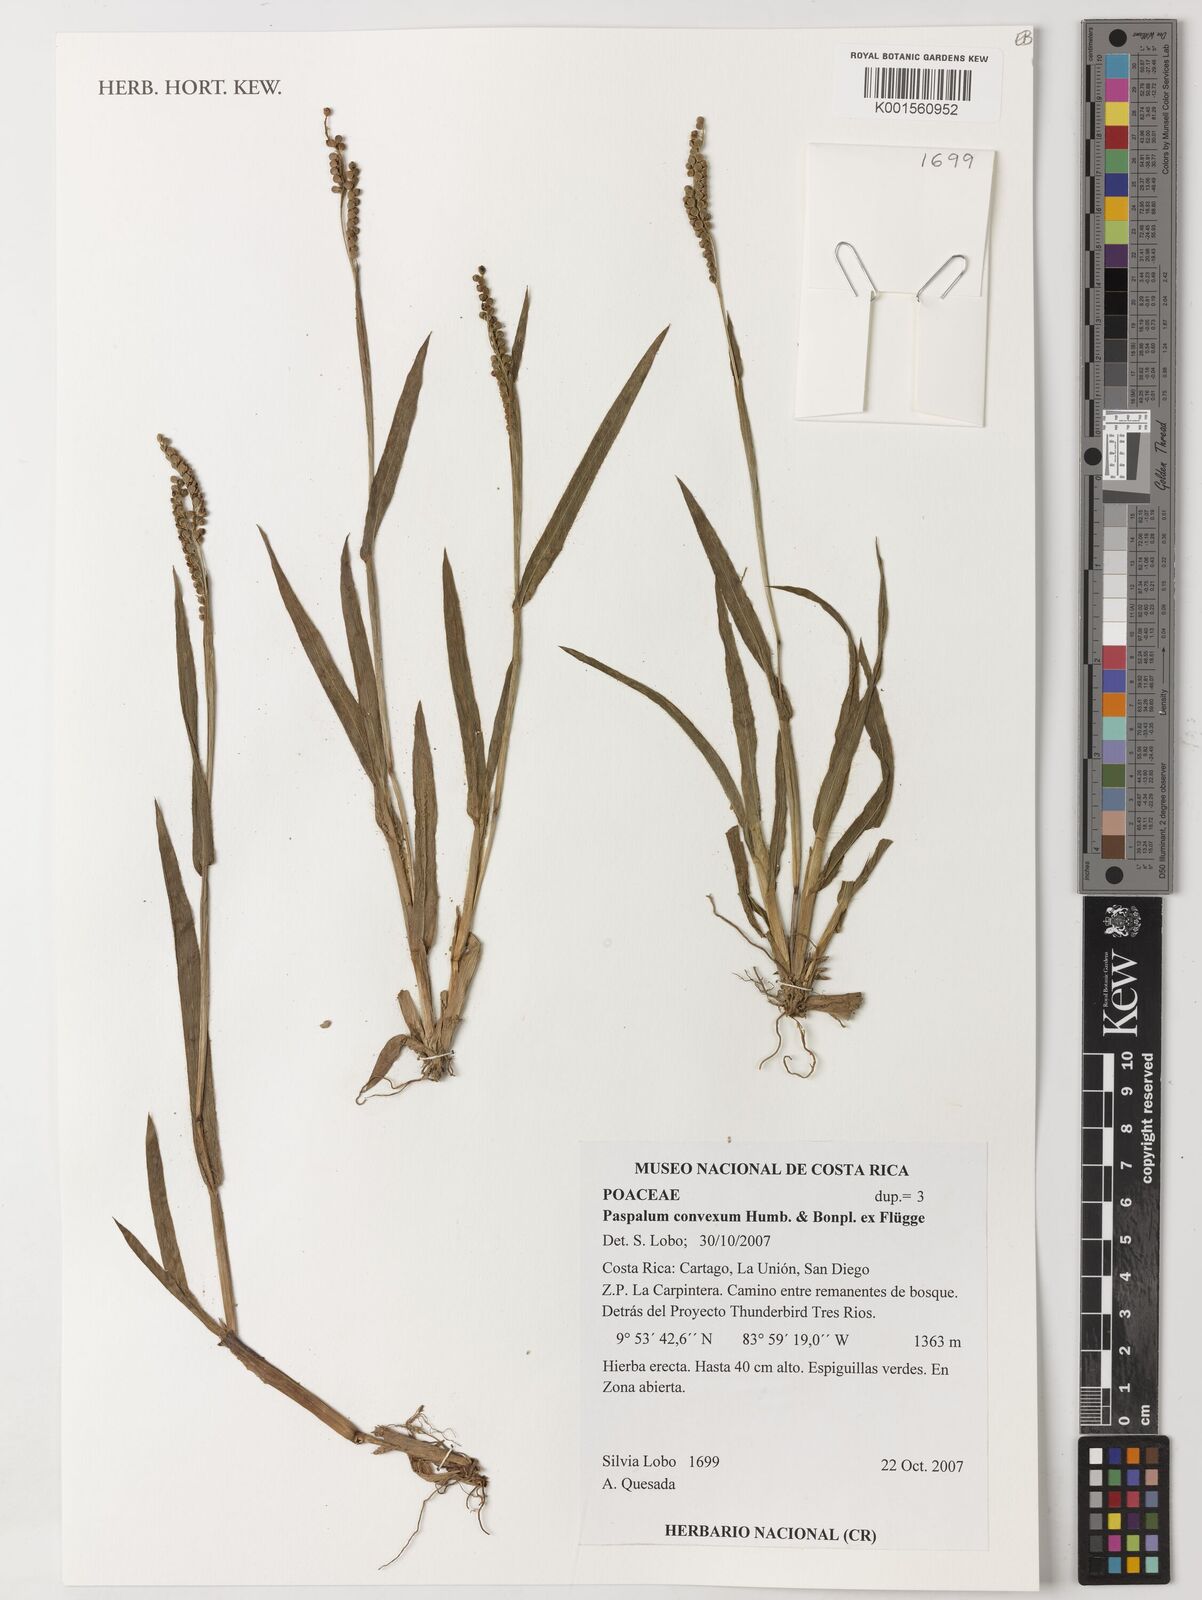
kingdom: Plantae
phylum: Tracheophyta
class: Liliopsida
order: Poales
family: Poaceae
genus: Paspalum
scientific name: Paspalum convexum
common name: Latin american crowngrass
